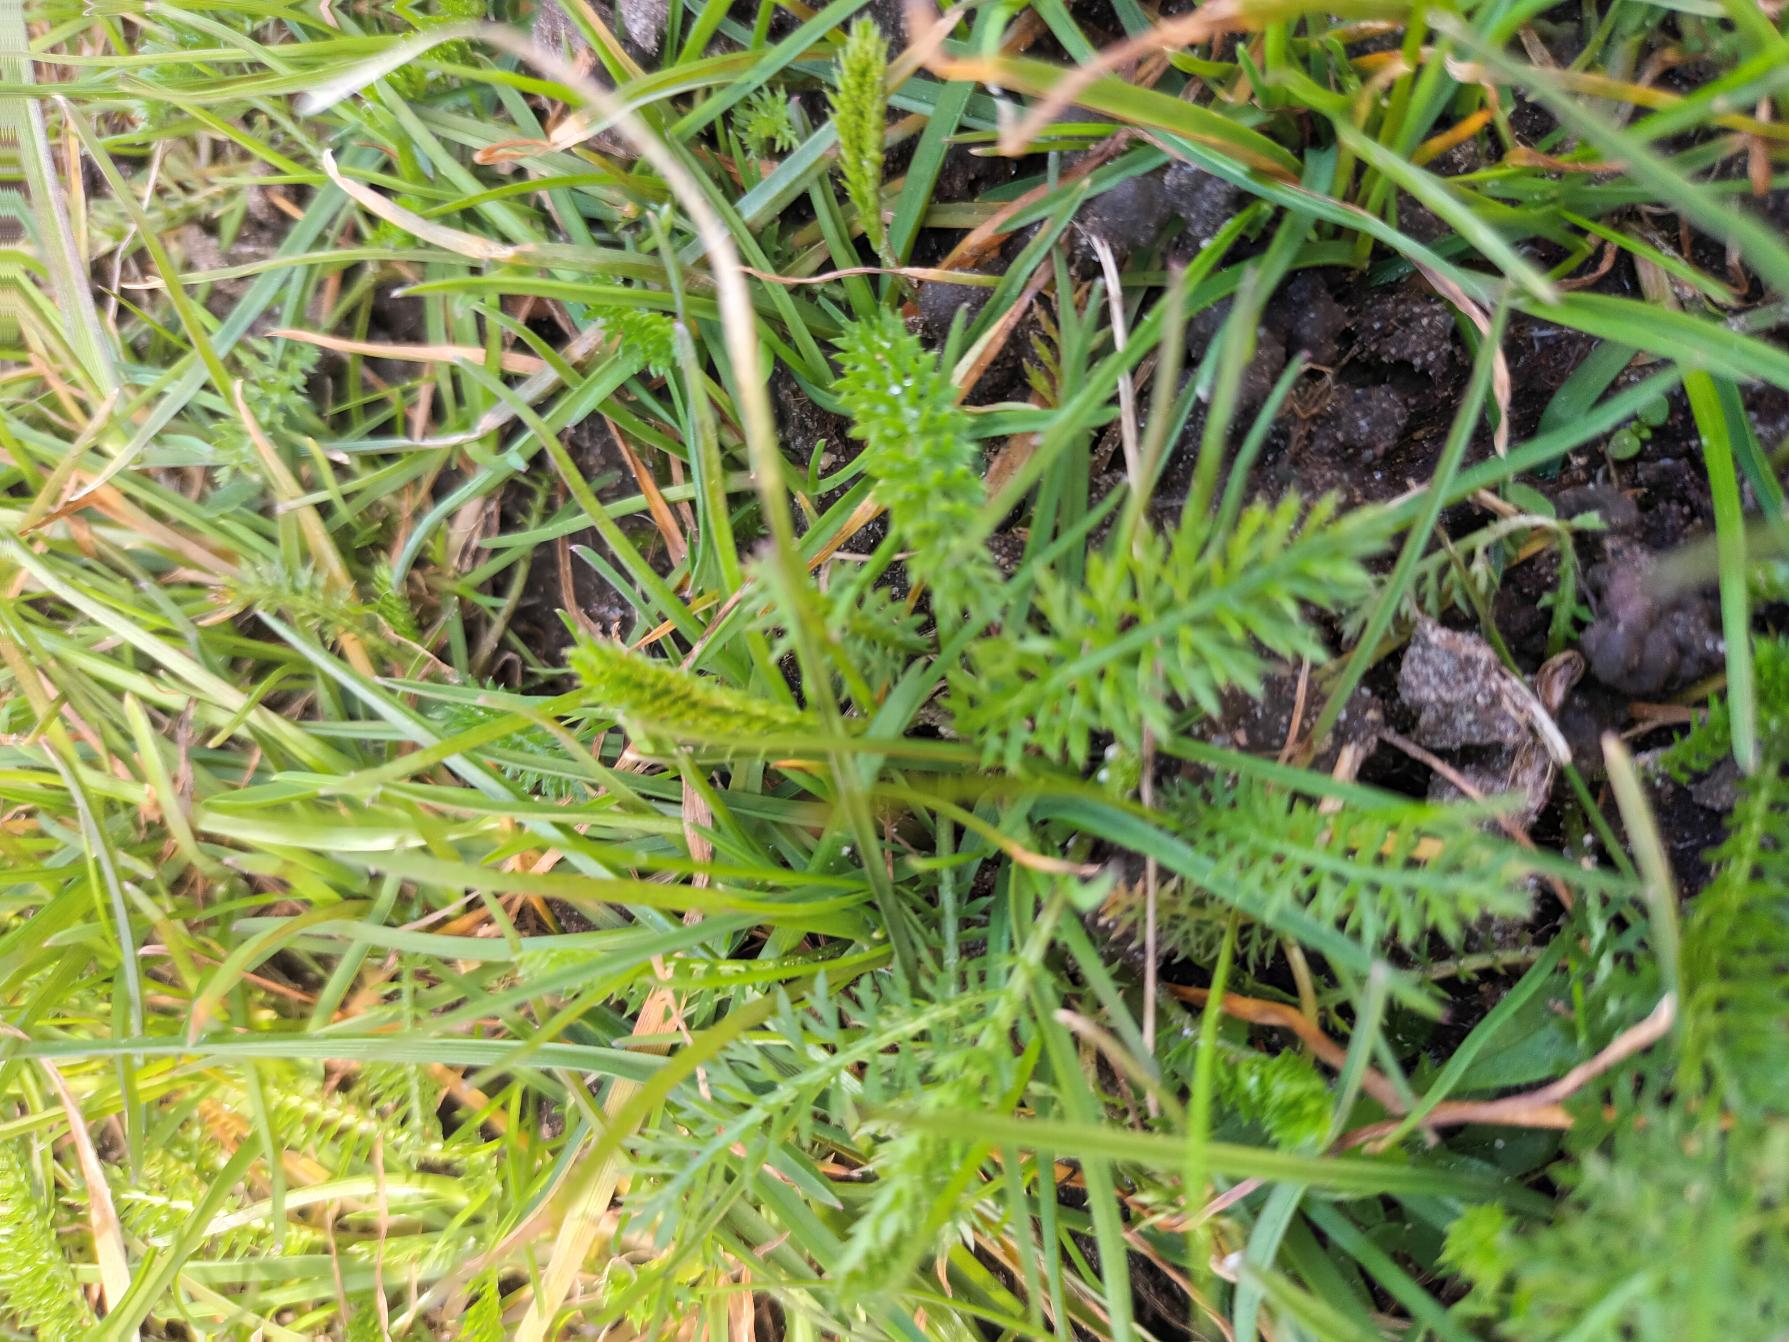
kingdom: Plantae
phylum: Tracheophyta
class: Magnoliopsida
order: Asterales
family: Asteraceae
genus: Achillea
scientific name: Achillea millefolium
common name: Almindelig røllike
